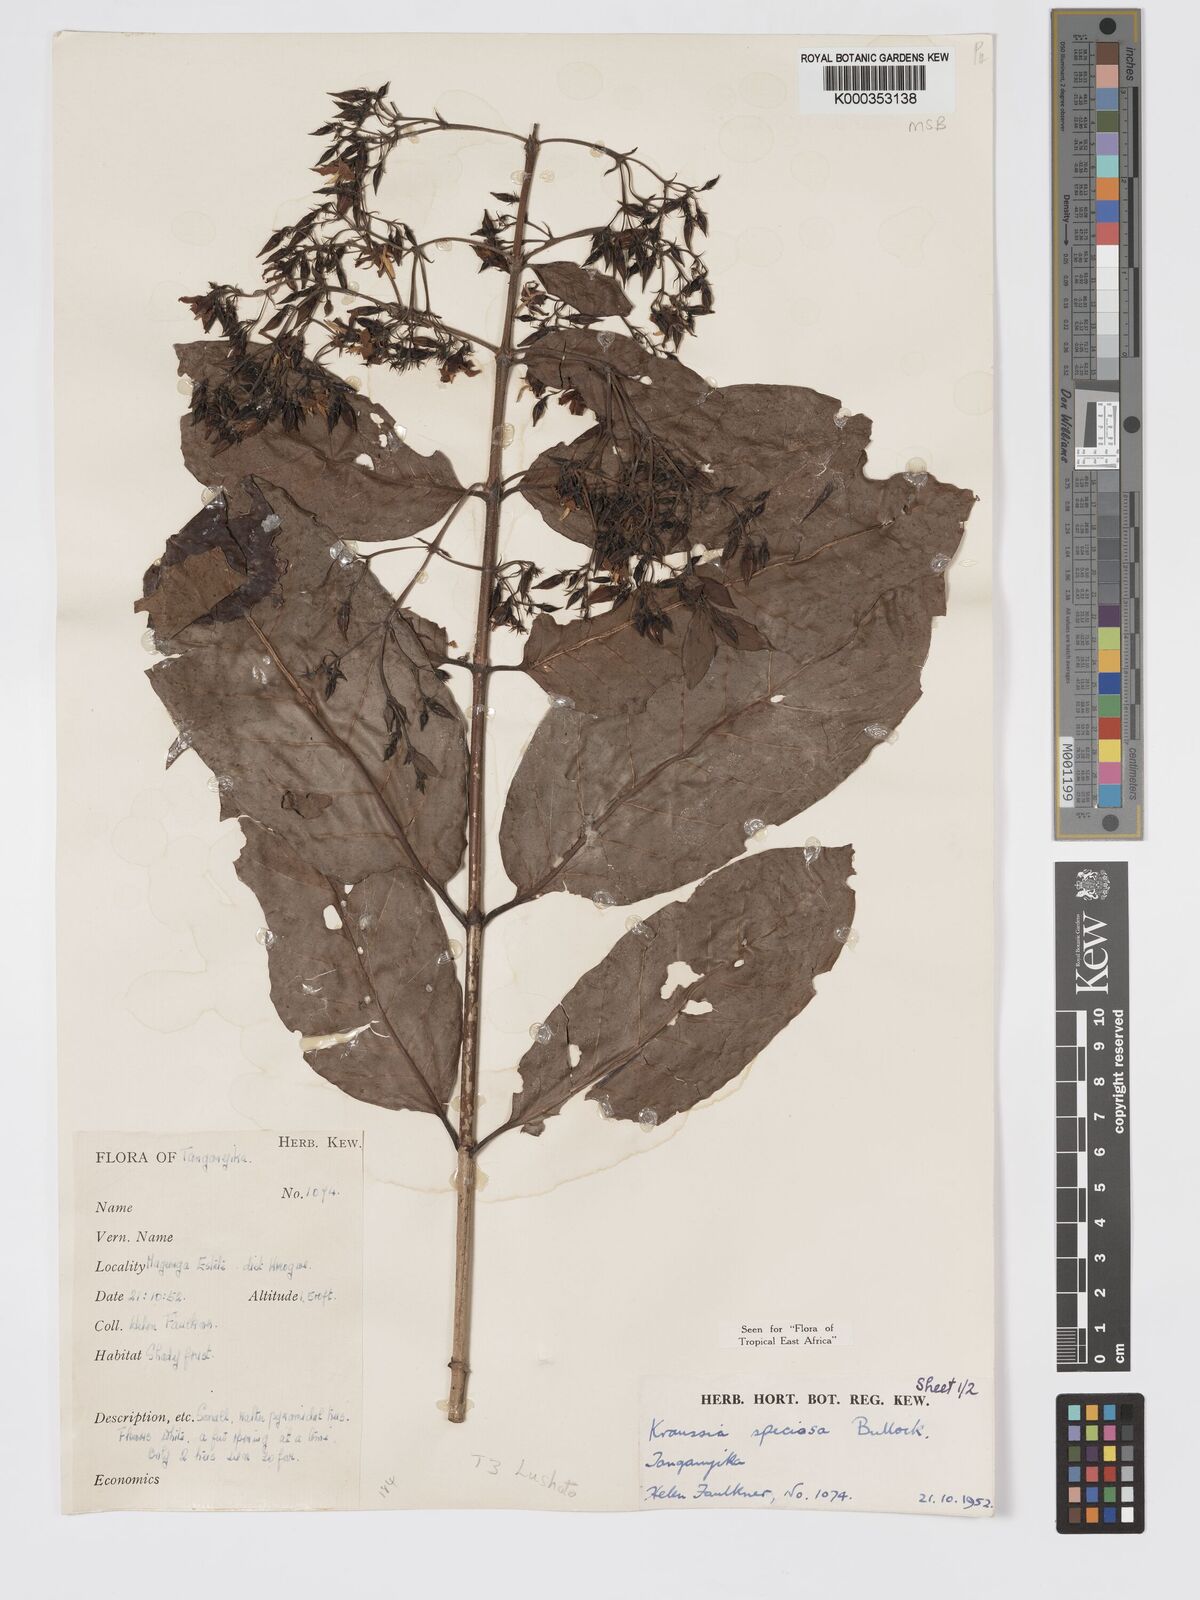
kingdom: Plantae
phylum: Tracheophyta
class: Magnoliopsida
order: Gentianales
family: Rubiaceae
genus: Kraussia
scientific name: Kraussia speciosa
